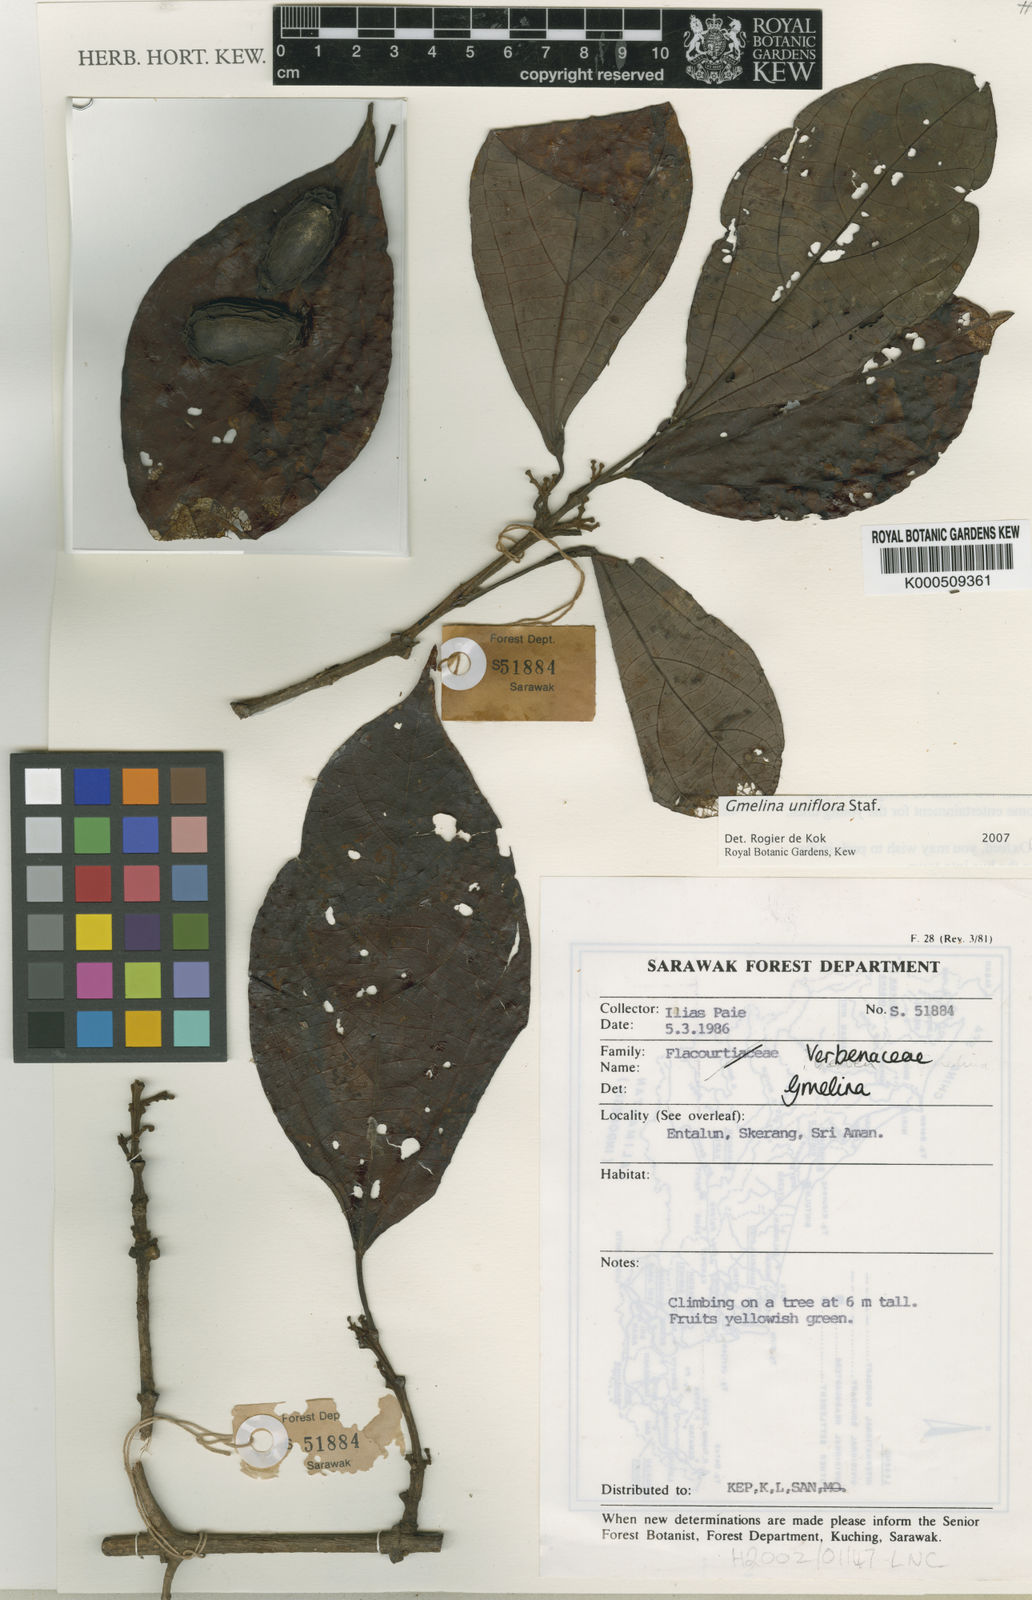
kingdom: Plantae
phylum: Tracheophyta
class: Magnoliopsida
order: Lamiales
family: Lamiaceae
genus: Gmelina
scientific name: Gmelina uniflora
